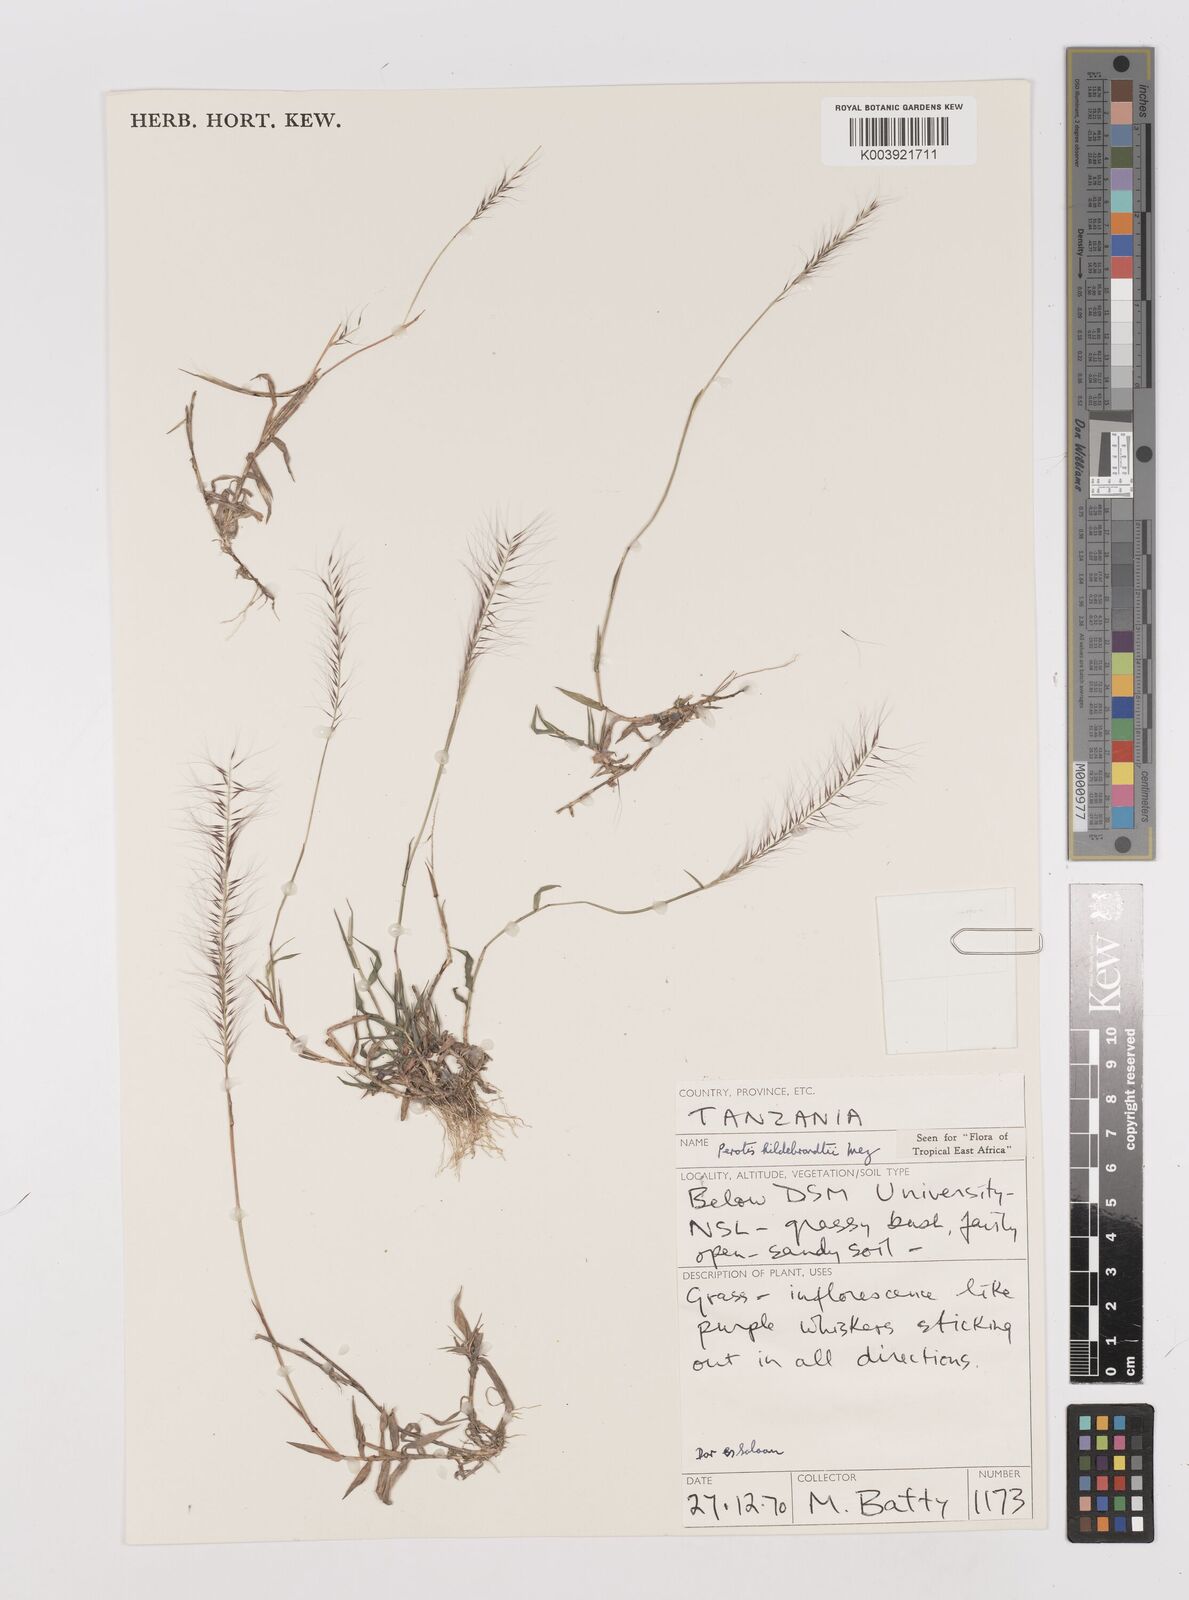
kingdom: Plantae
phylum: Tracheophyta
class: Liliopsida
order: Poales
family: Poaceae
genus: Perotis
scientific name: Perotis hildebrandtii
